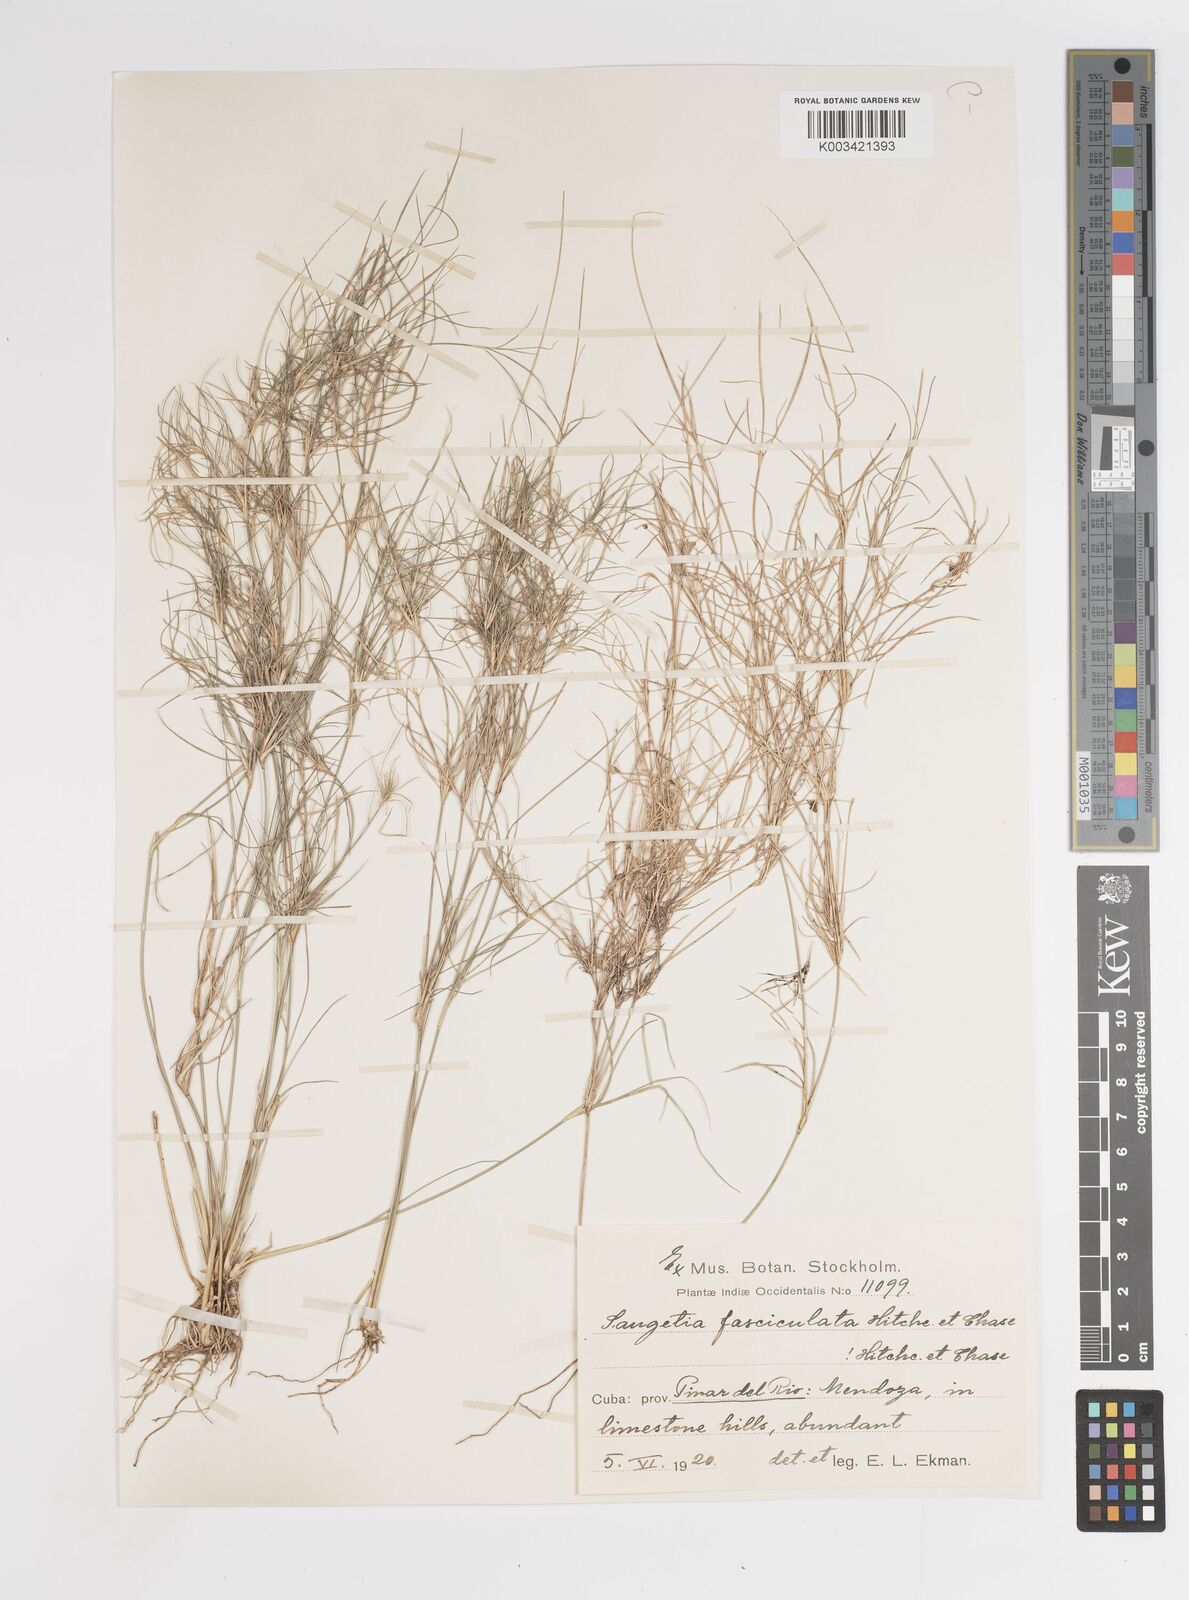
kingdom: Plantae
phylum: Tracheophyta
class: Liliopsida
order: Poales
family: Poaceae
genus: Enteropogon
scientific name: Enteropogon
